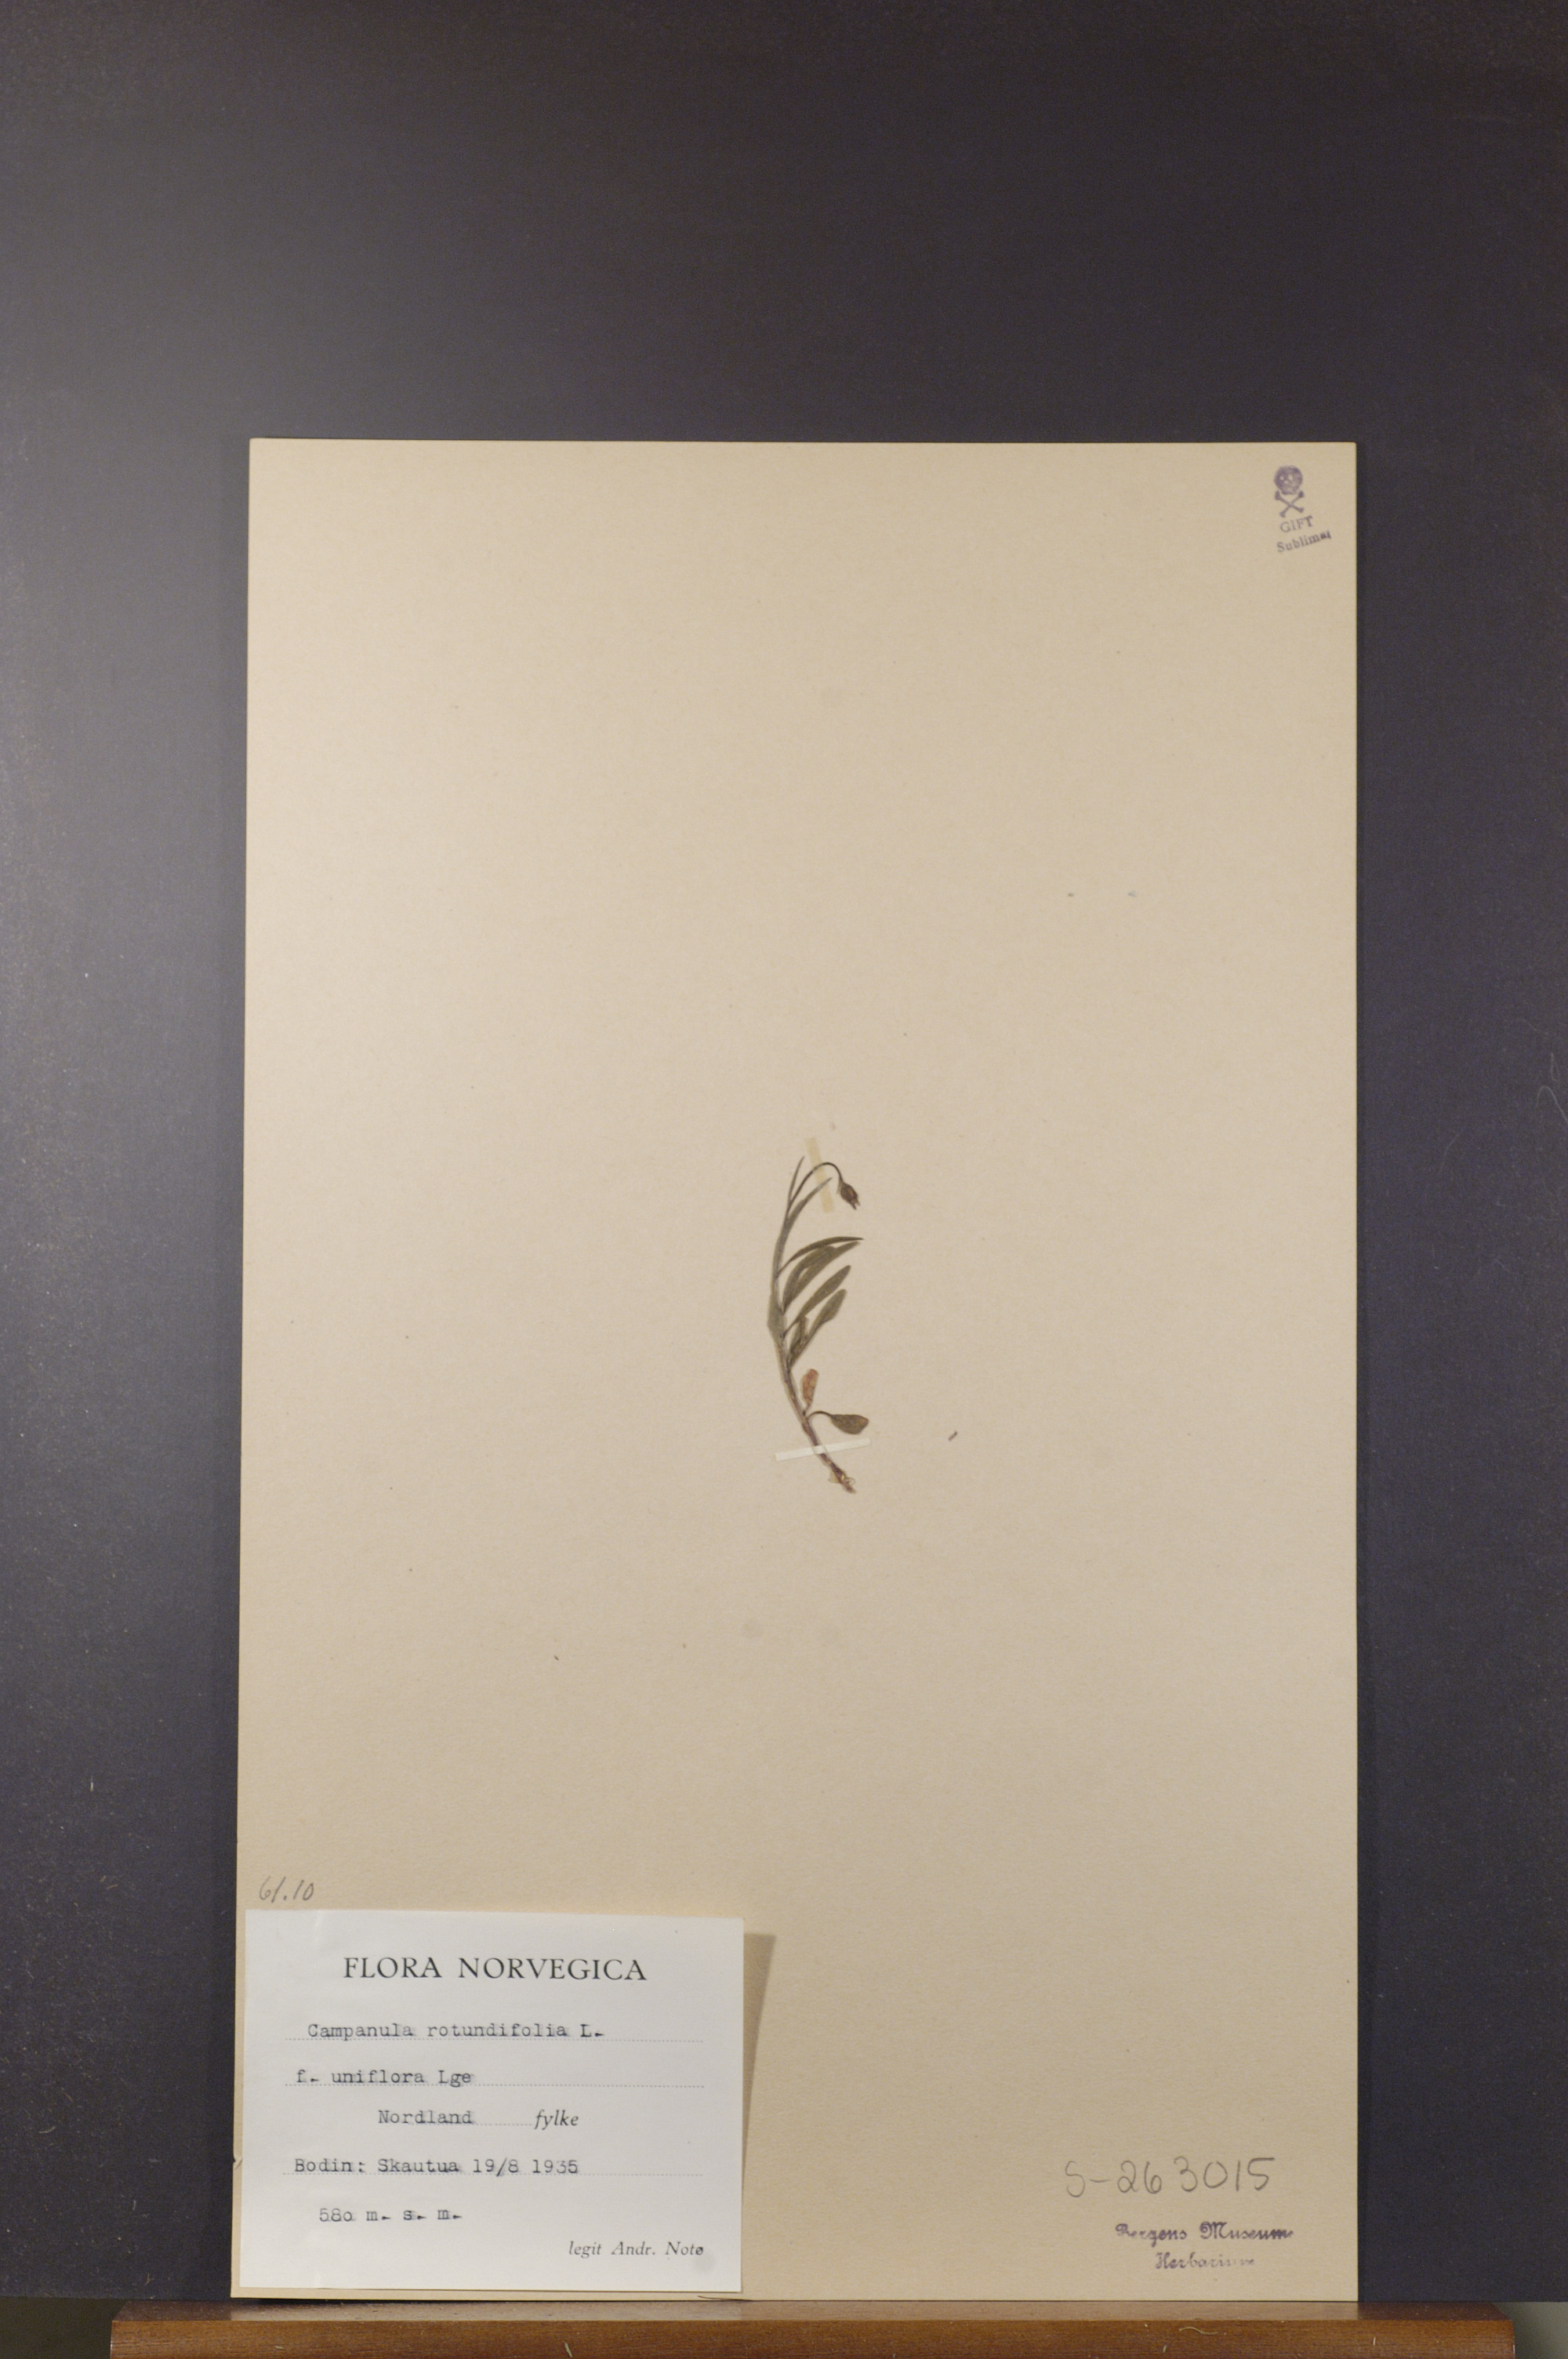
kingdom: Plantae
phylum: Tracheophyta
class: Magnoliopsida
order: Asterales
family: Campanulaceae
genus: Campanula
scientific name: Campanula rotundifolia
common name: Harebell
